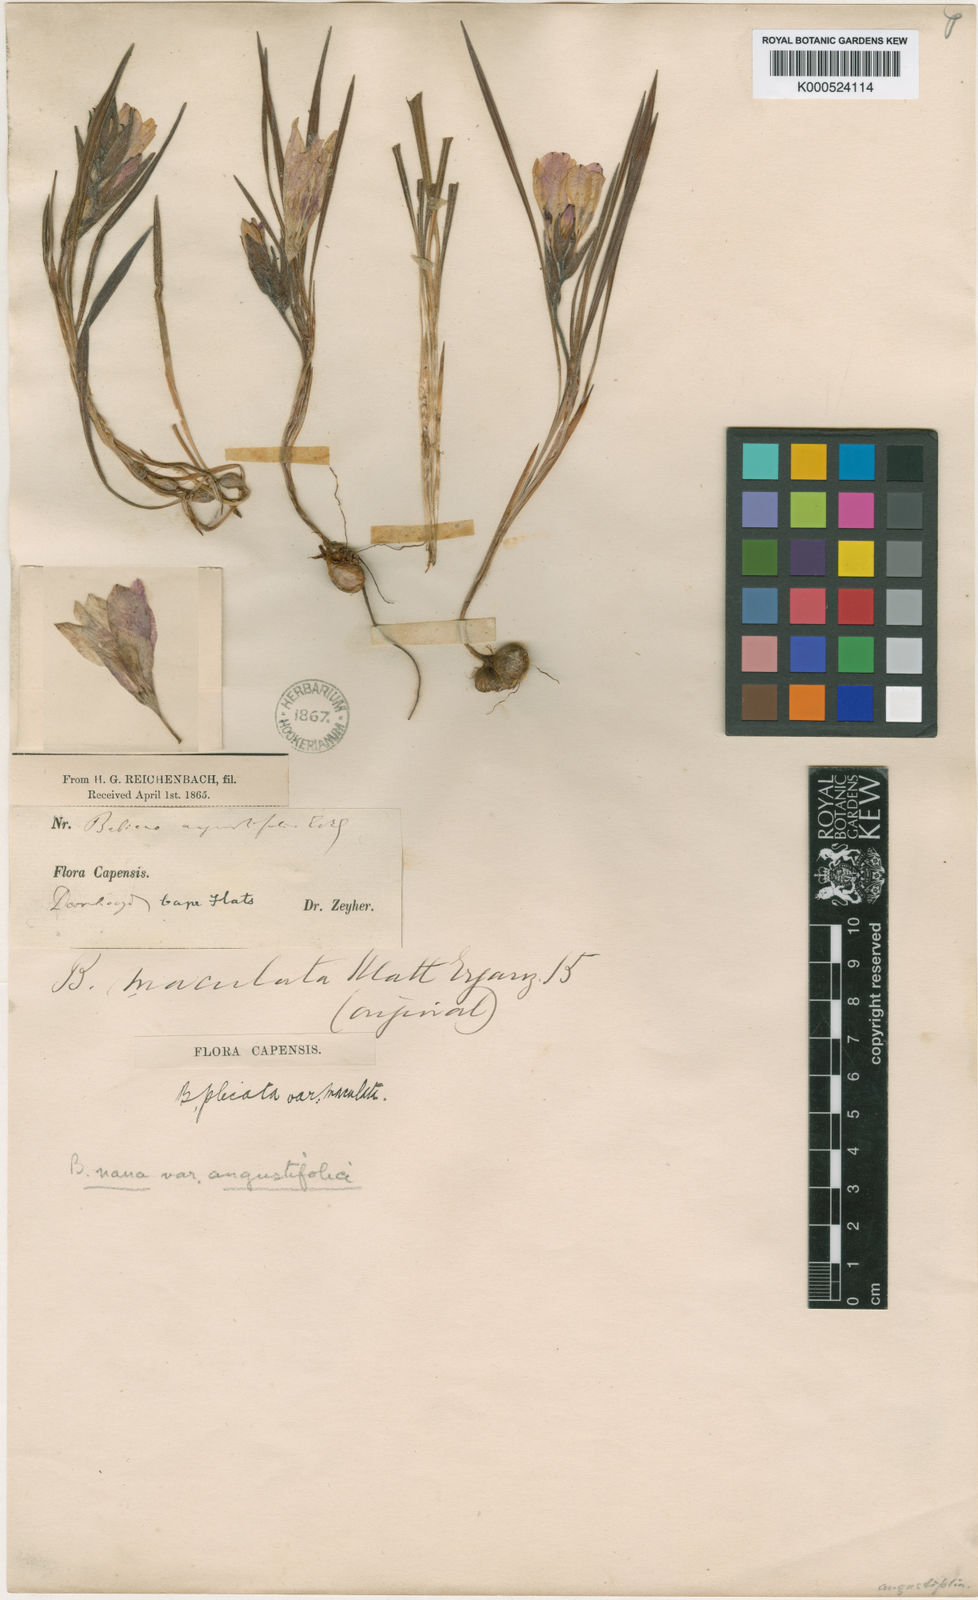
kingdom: Plantae
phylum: Tracheophyta
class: Liliopsida
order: Asparagales
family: Iridaceae
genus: Babiana
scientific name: Babiana nana
